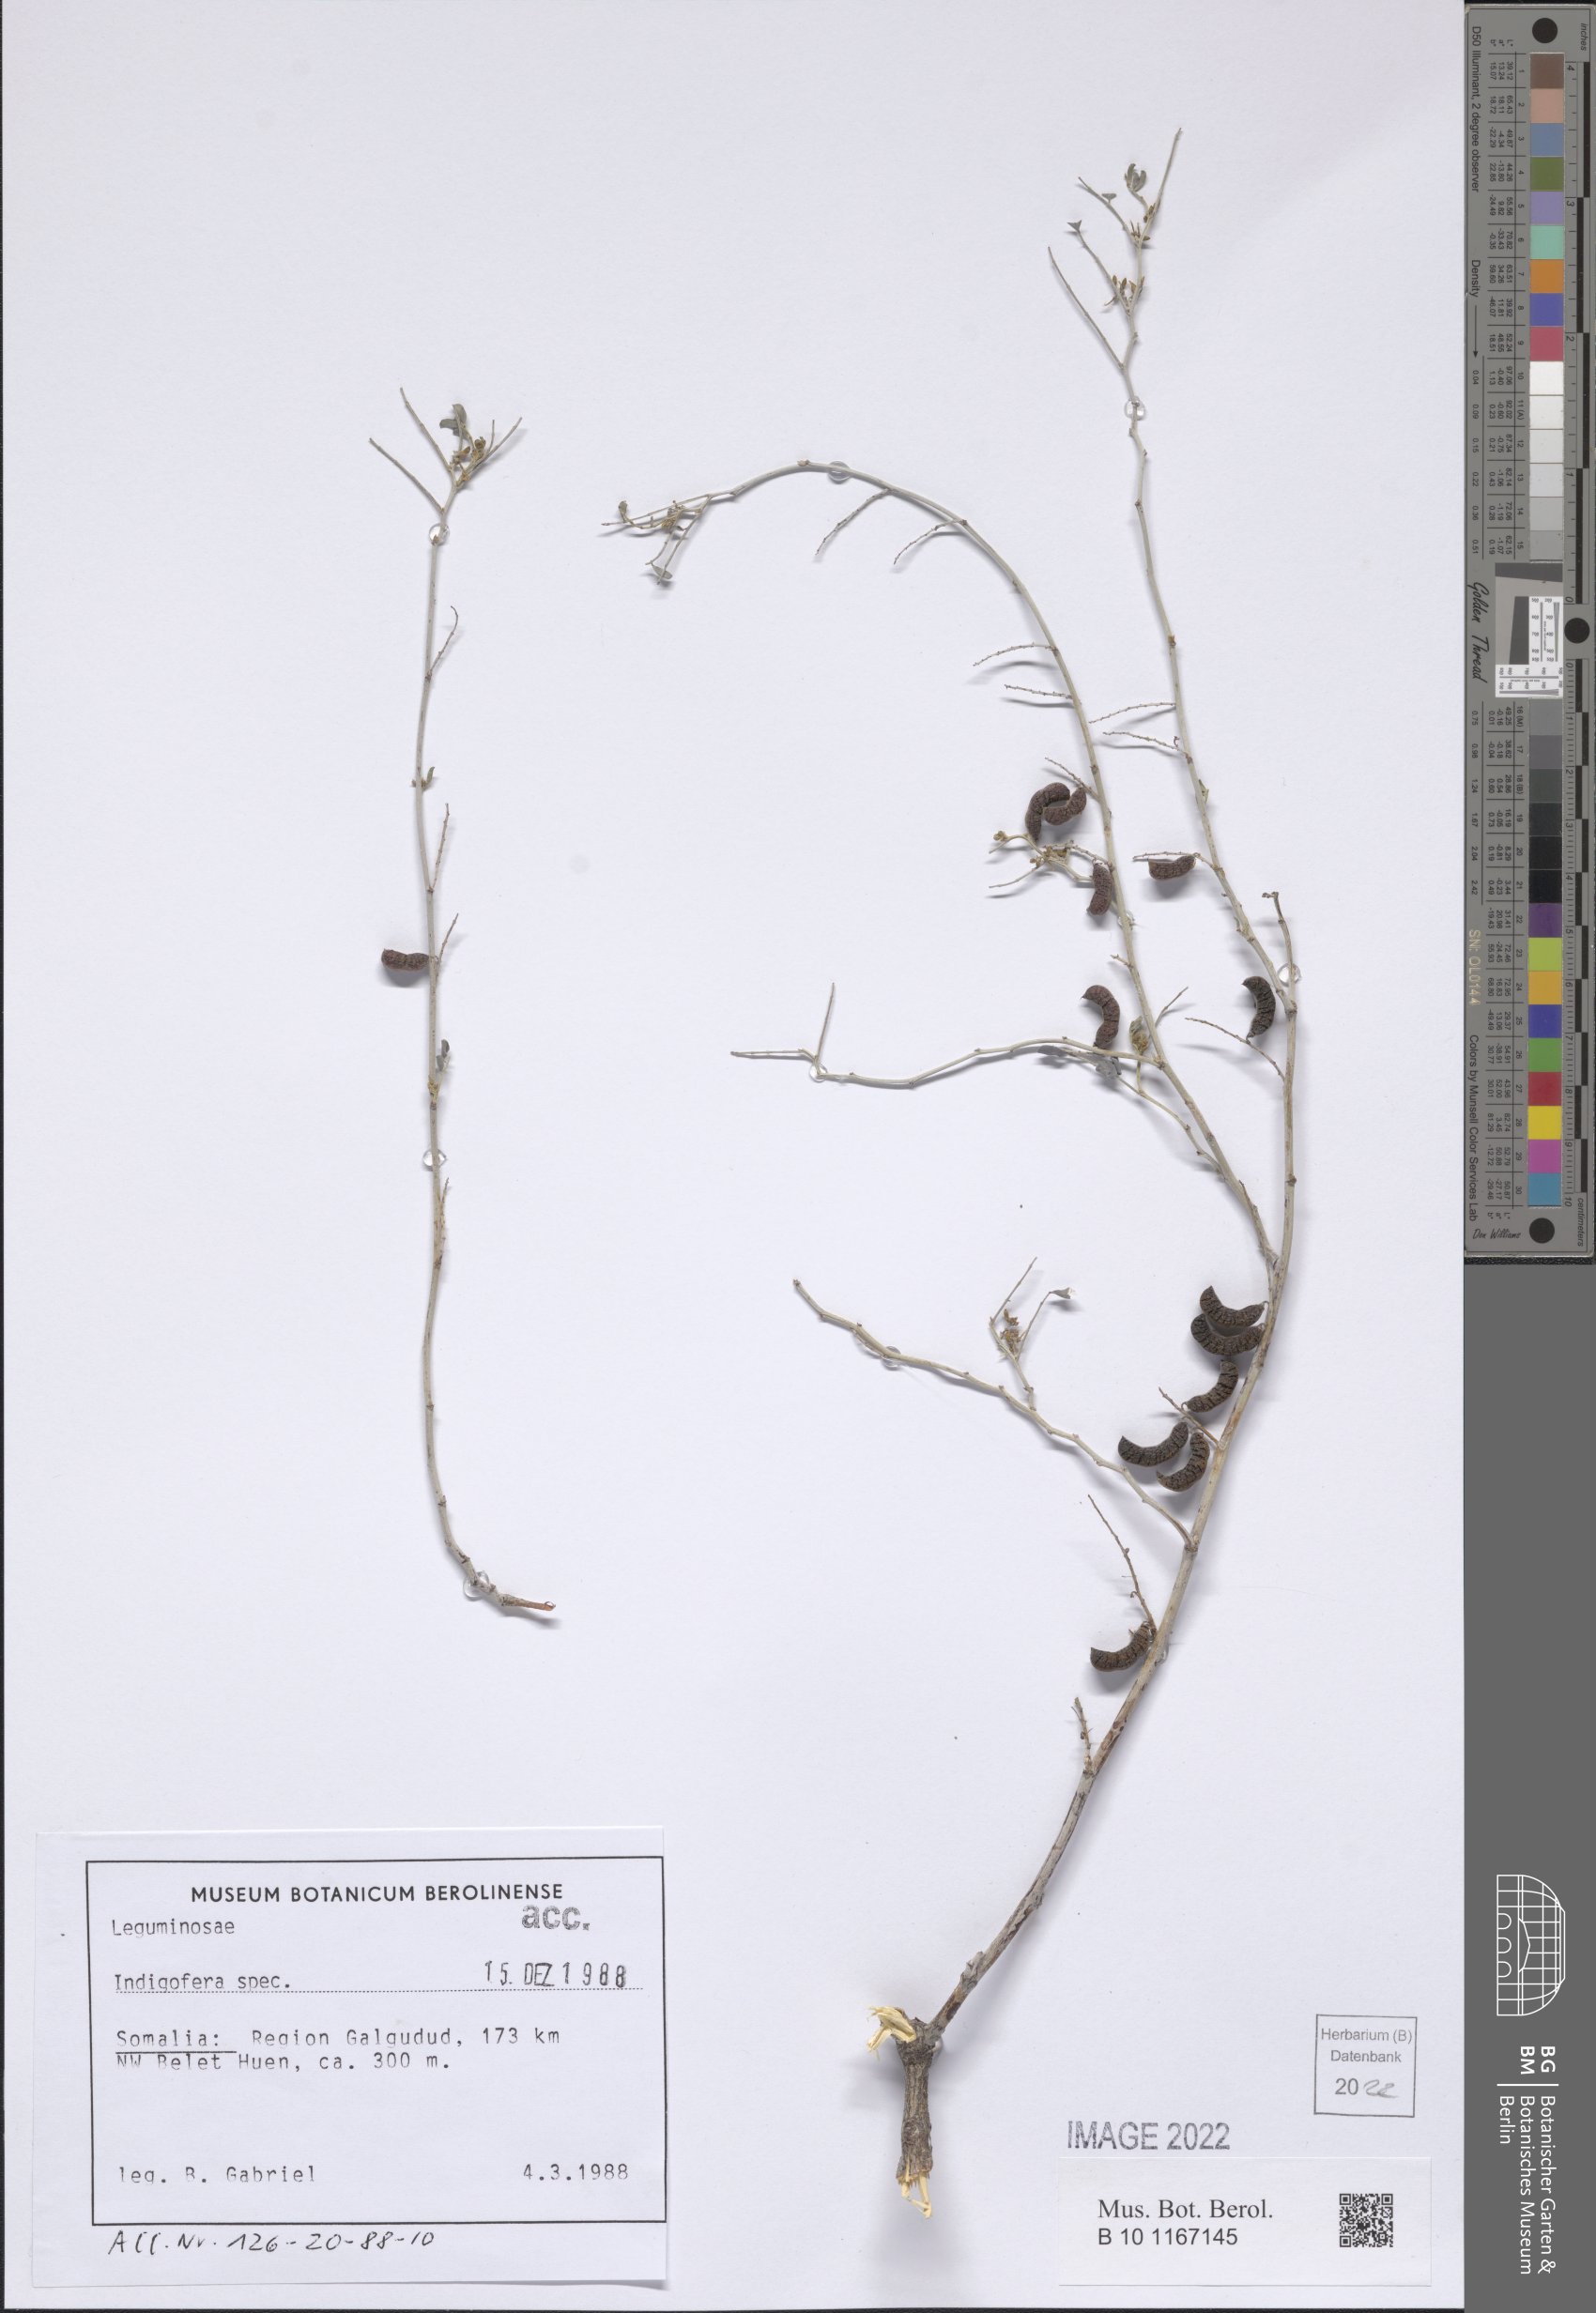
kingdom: Plantae
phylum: Tracheophyta
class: Magnoliopsida
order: Fabales
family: Fabaceae
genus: Indigofera
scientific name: Indigofera
